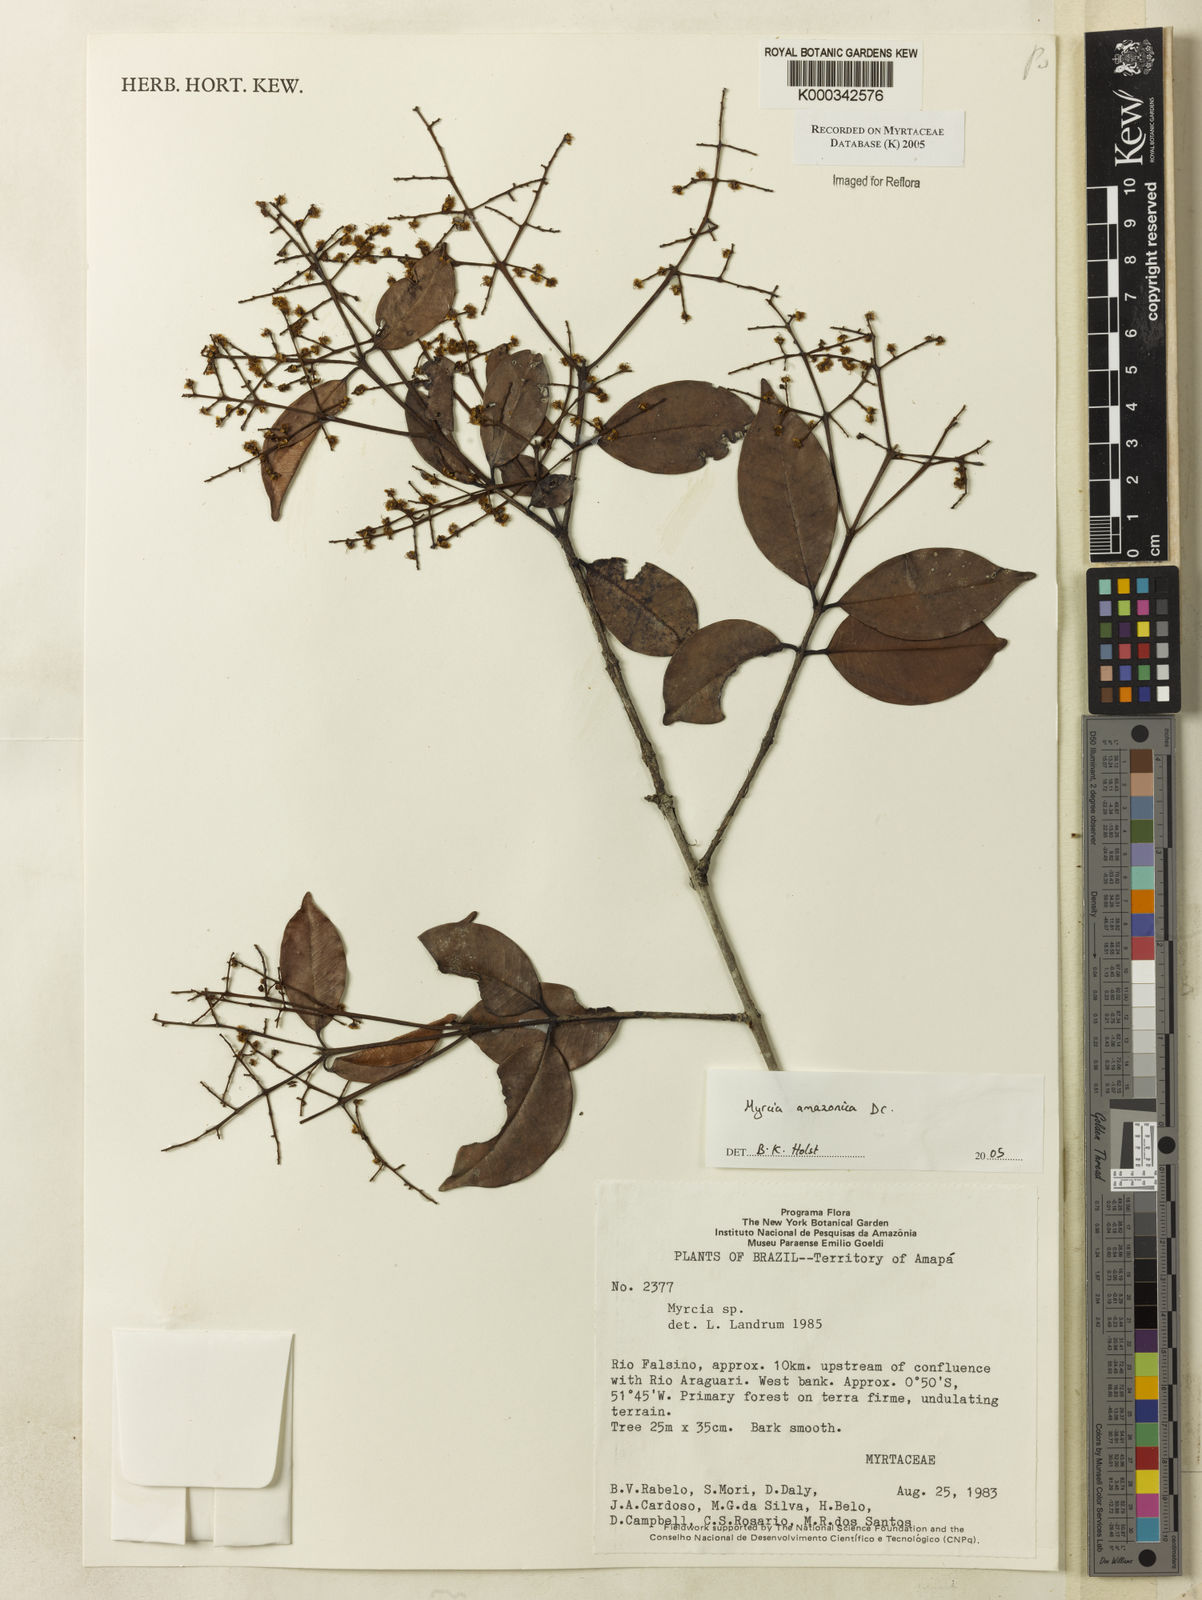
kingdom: Plantae
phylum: Tracheophyta
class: Magnoliopsida
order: Myrtales
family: Myrtaceae
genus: Myrcia
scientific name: Myrcia amazonica
